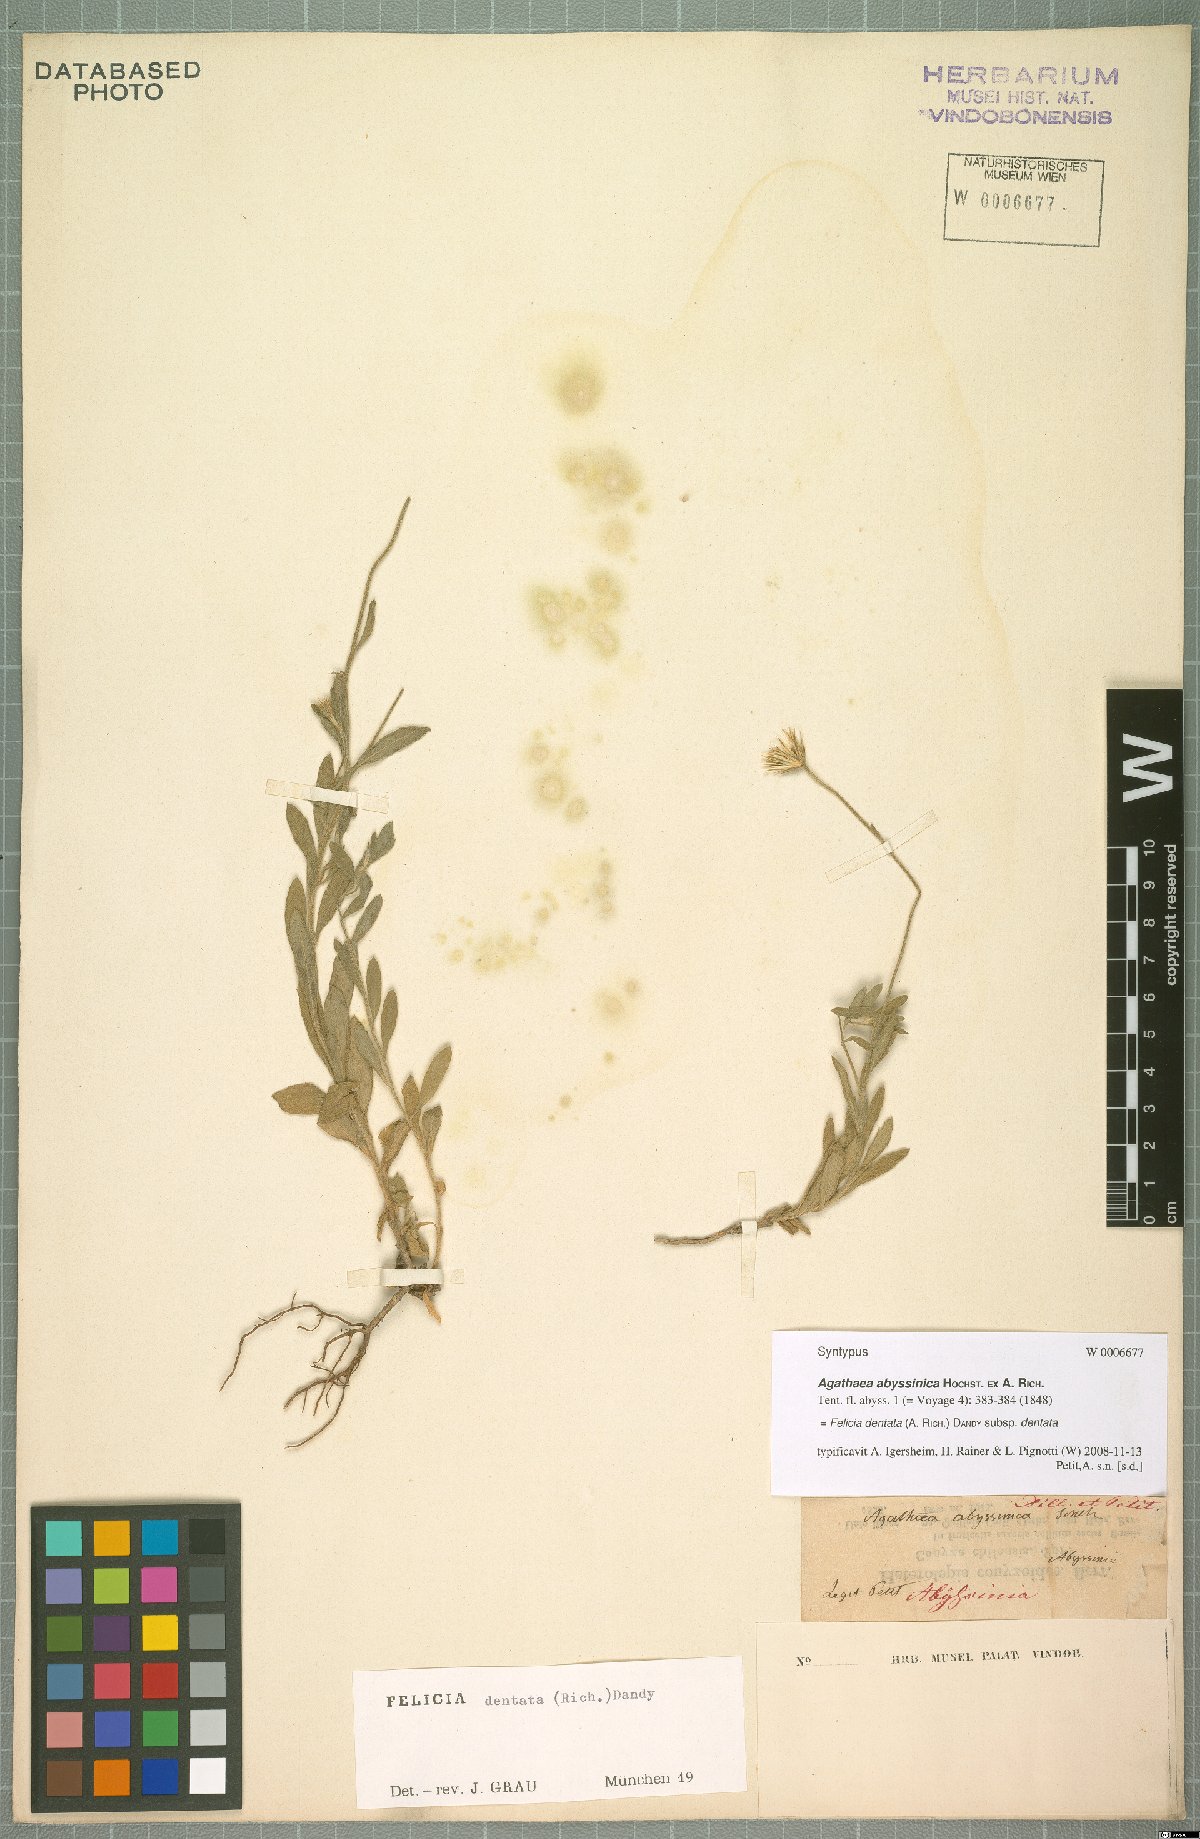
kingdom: Plantae
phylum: Tracheophyta
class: Magnoliopsida
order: Asterales
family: Asteraceae
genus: Felicia
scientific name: Felicia dentata
